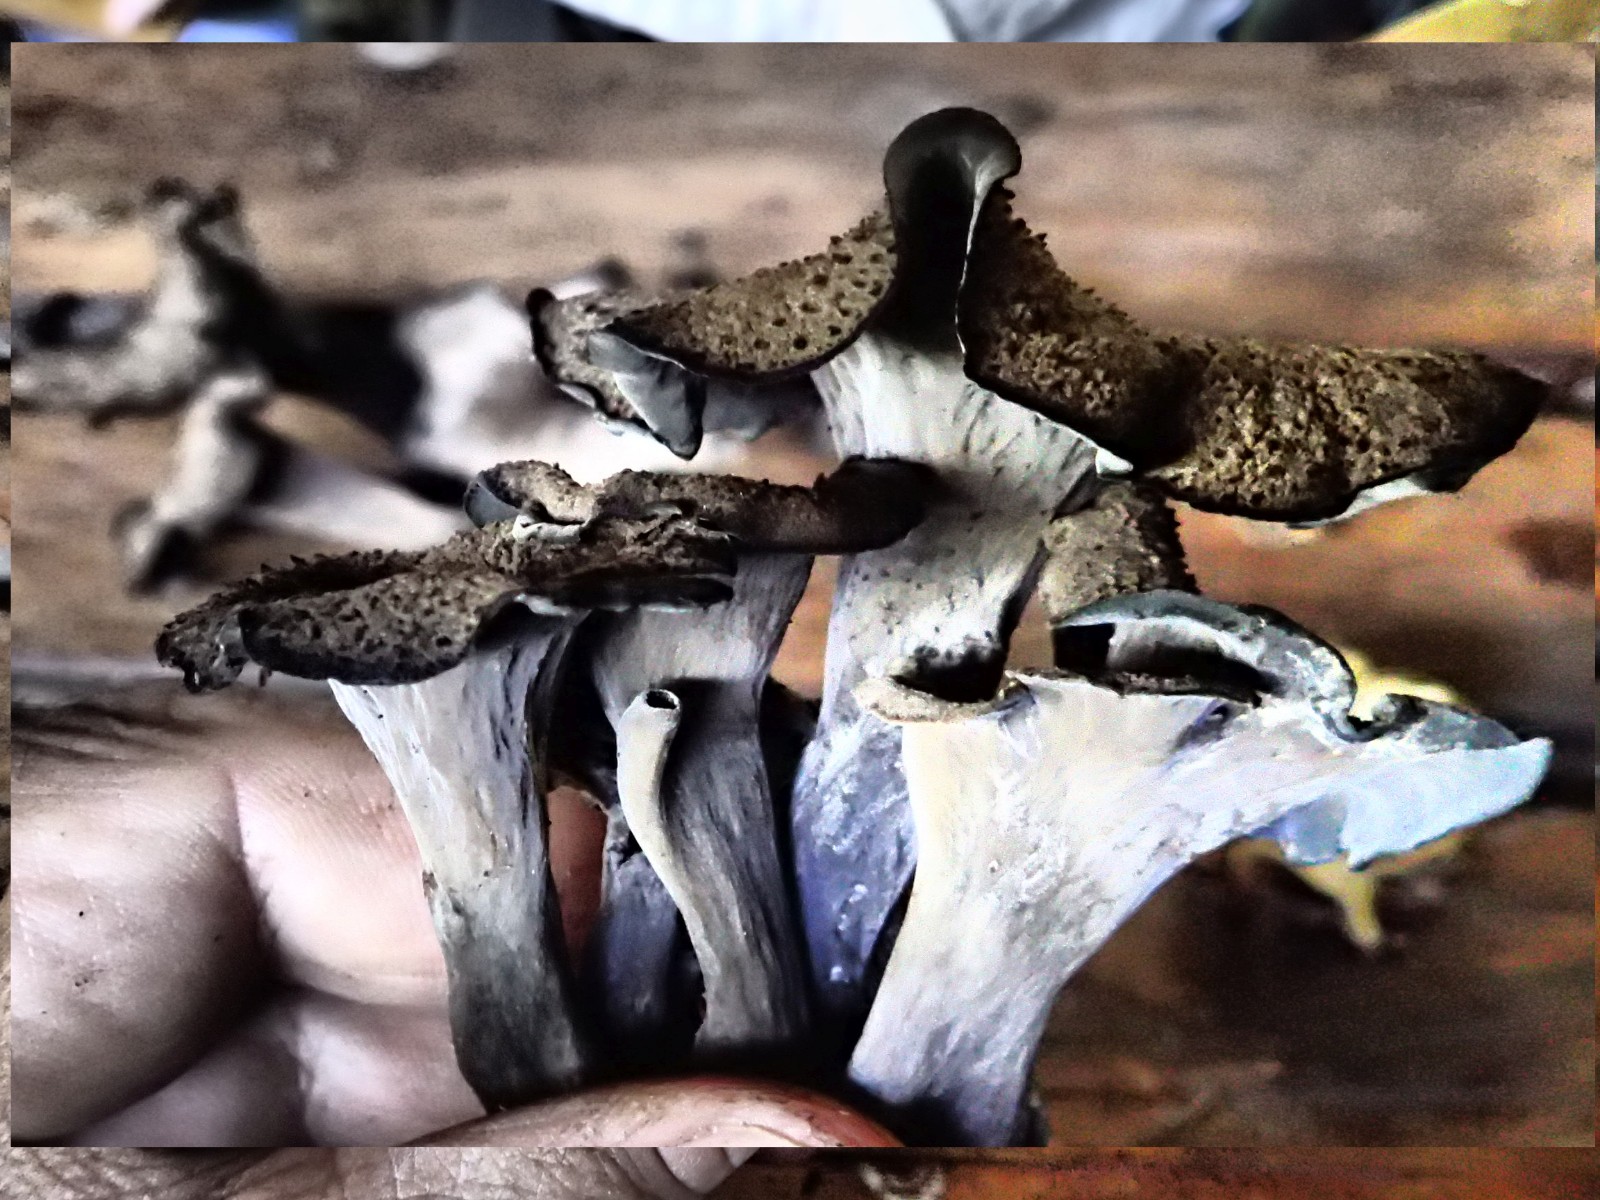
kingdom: Fungi
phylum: Basidiomycota
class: Agaricomycetes
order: Cantharellales
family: Hydnaceae
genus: Craterellus
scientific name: Craterellus cornucopioides
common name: trompetsvamp
